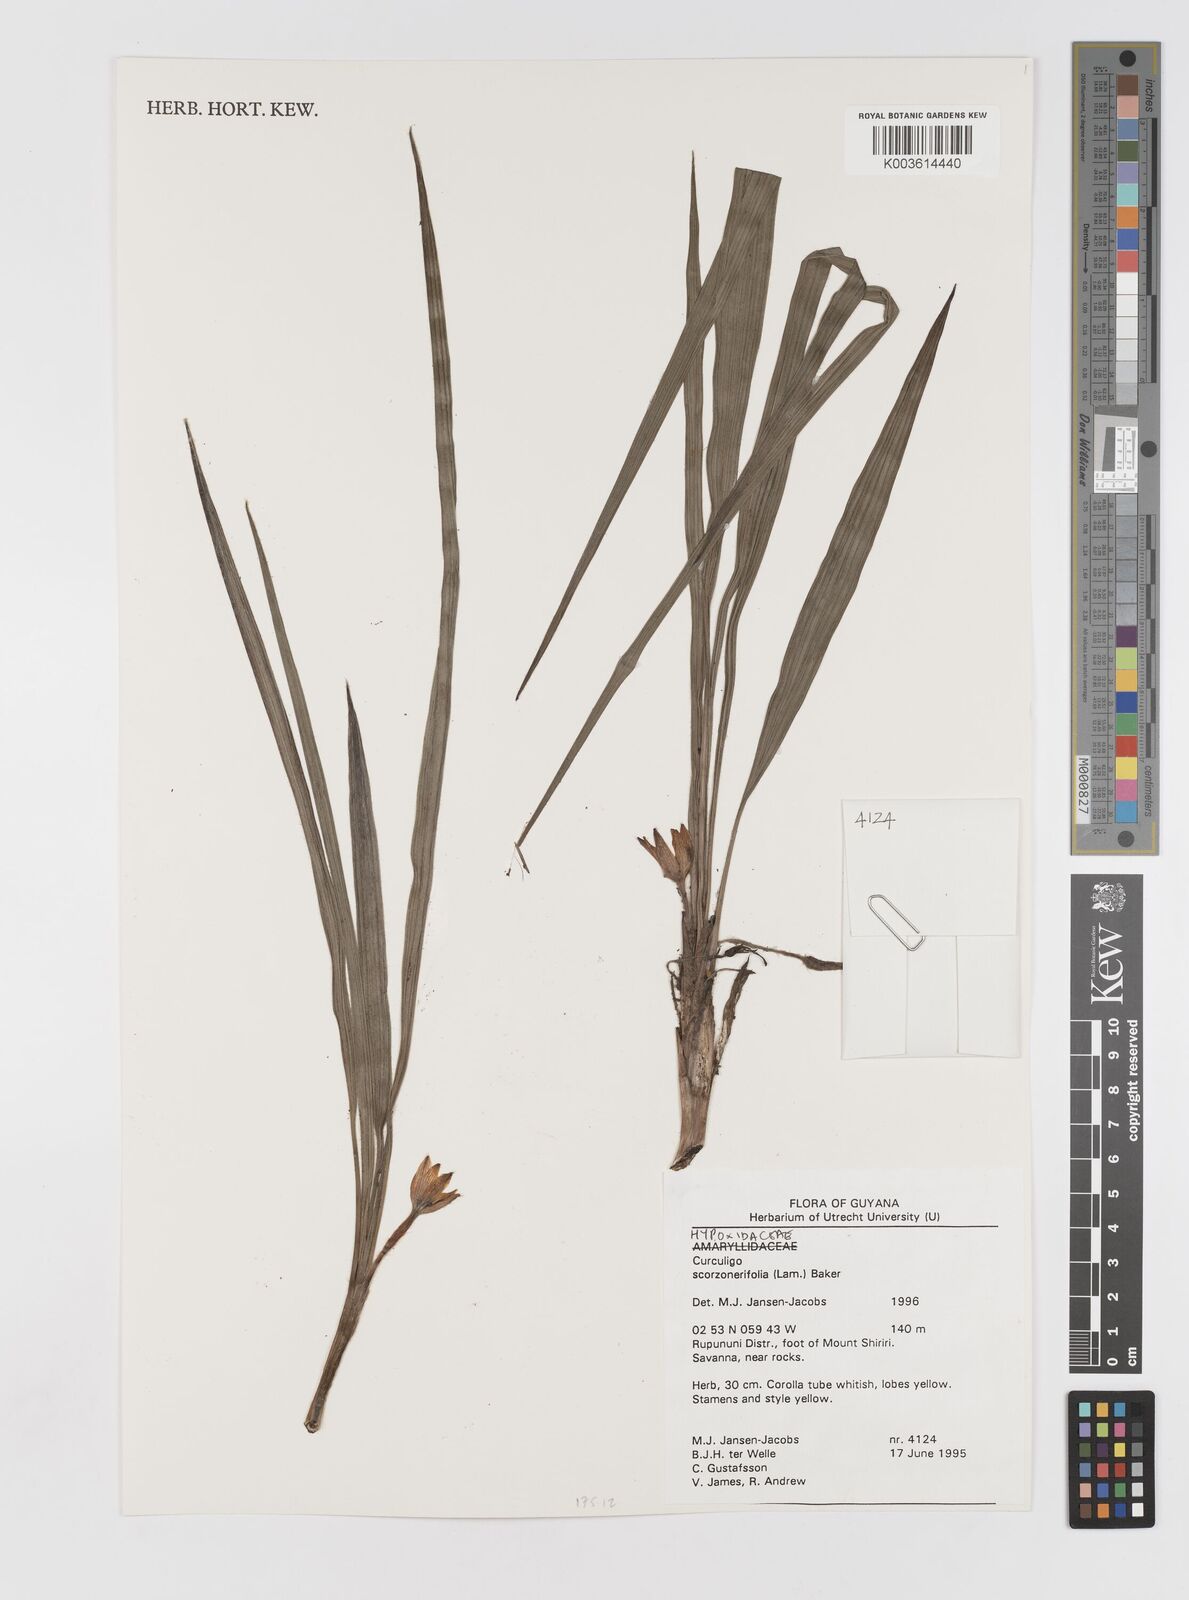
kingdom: Plantae
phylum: Tracheophyta
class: Liliopsida
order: Asparagales
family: Hypoxidaceae
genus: Curculigo
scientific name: Curculigo scorzonerifolia
